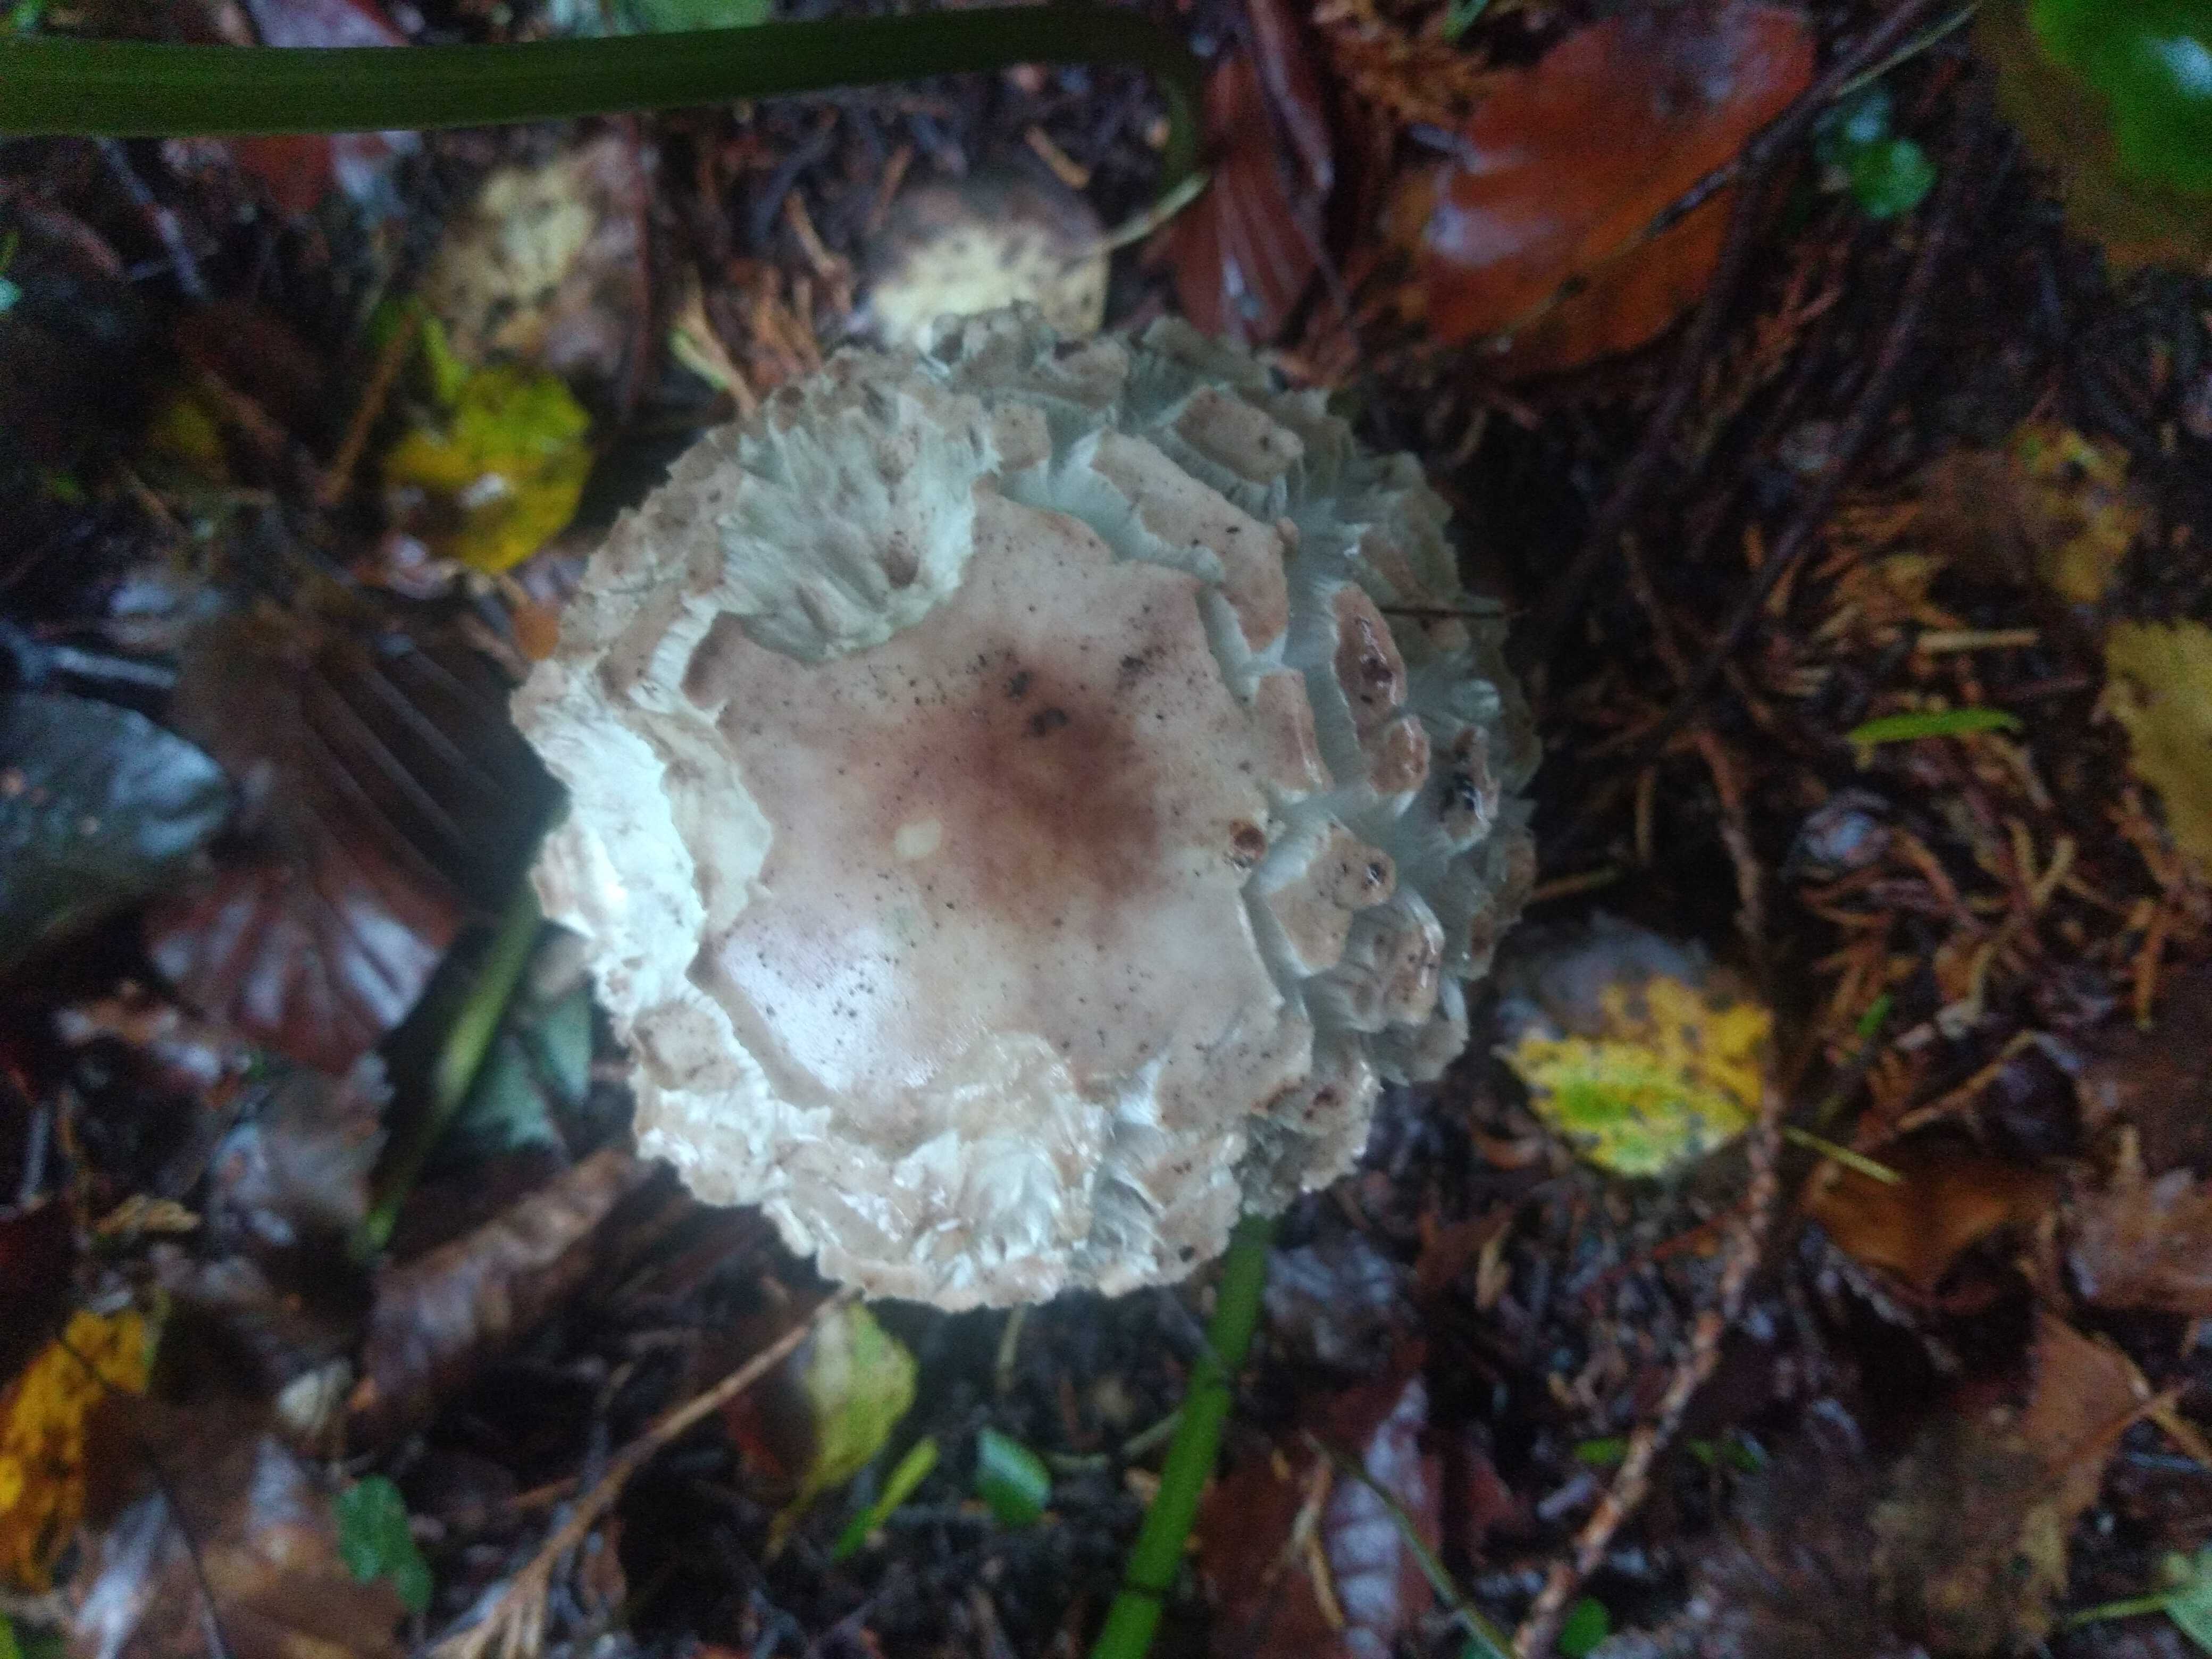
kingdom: Fungi
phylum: Basidiomycota
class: Agaricomycetes
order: Agaricales
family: Agaricaceae
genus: Chlorophyllum
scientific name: Chlorophyllum rhacodes
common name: ægte rabarberhat
